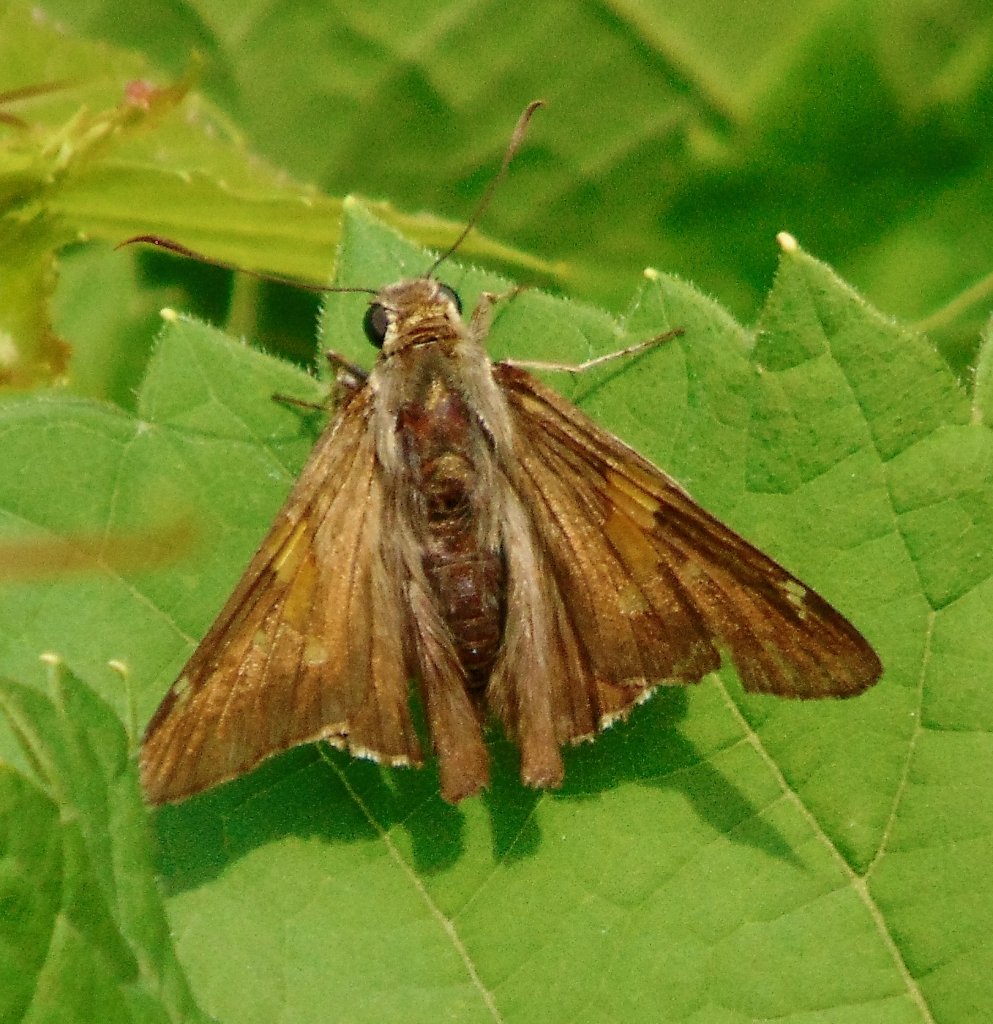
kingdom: Animalia
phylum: Arthropoda
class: Insecta
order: Lepidoptera
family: Hesperiidae
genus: Epargyreus
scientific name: Epargyreus clarus
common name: Silver-spotted Skipper
